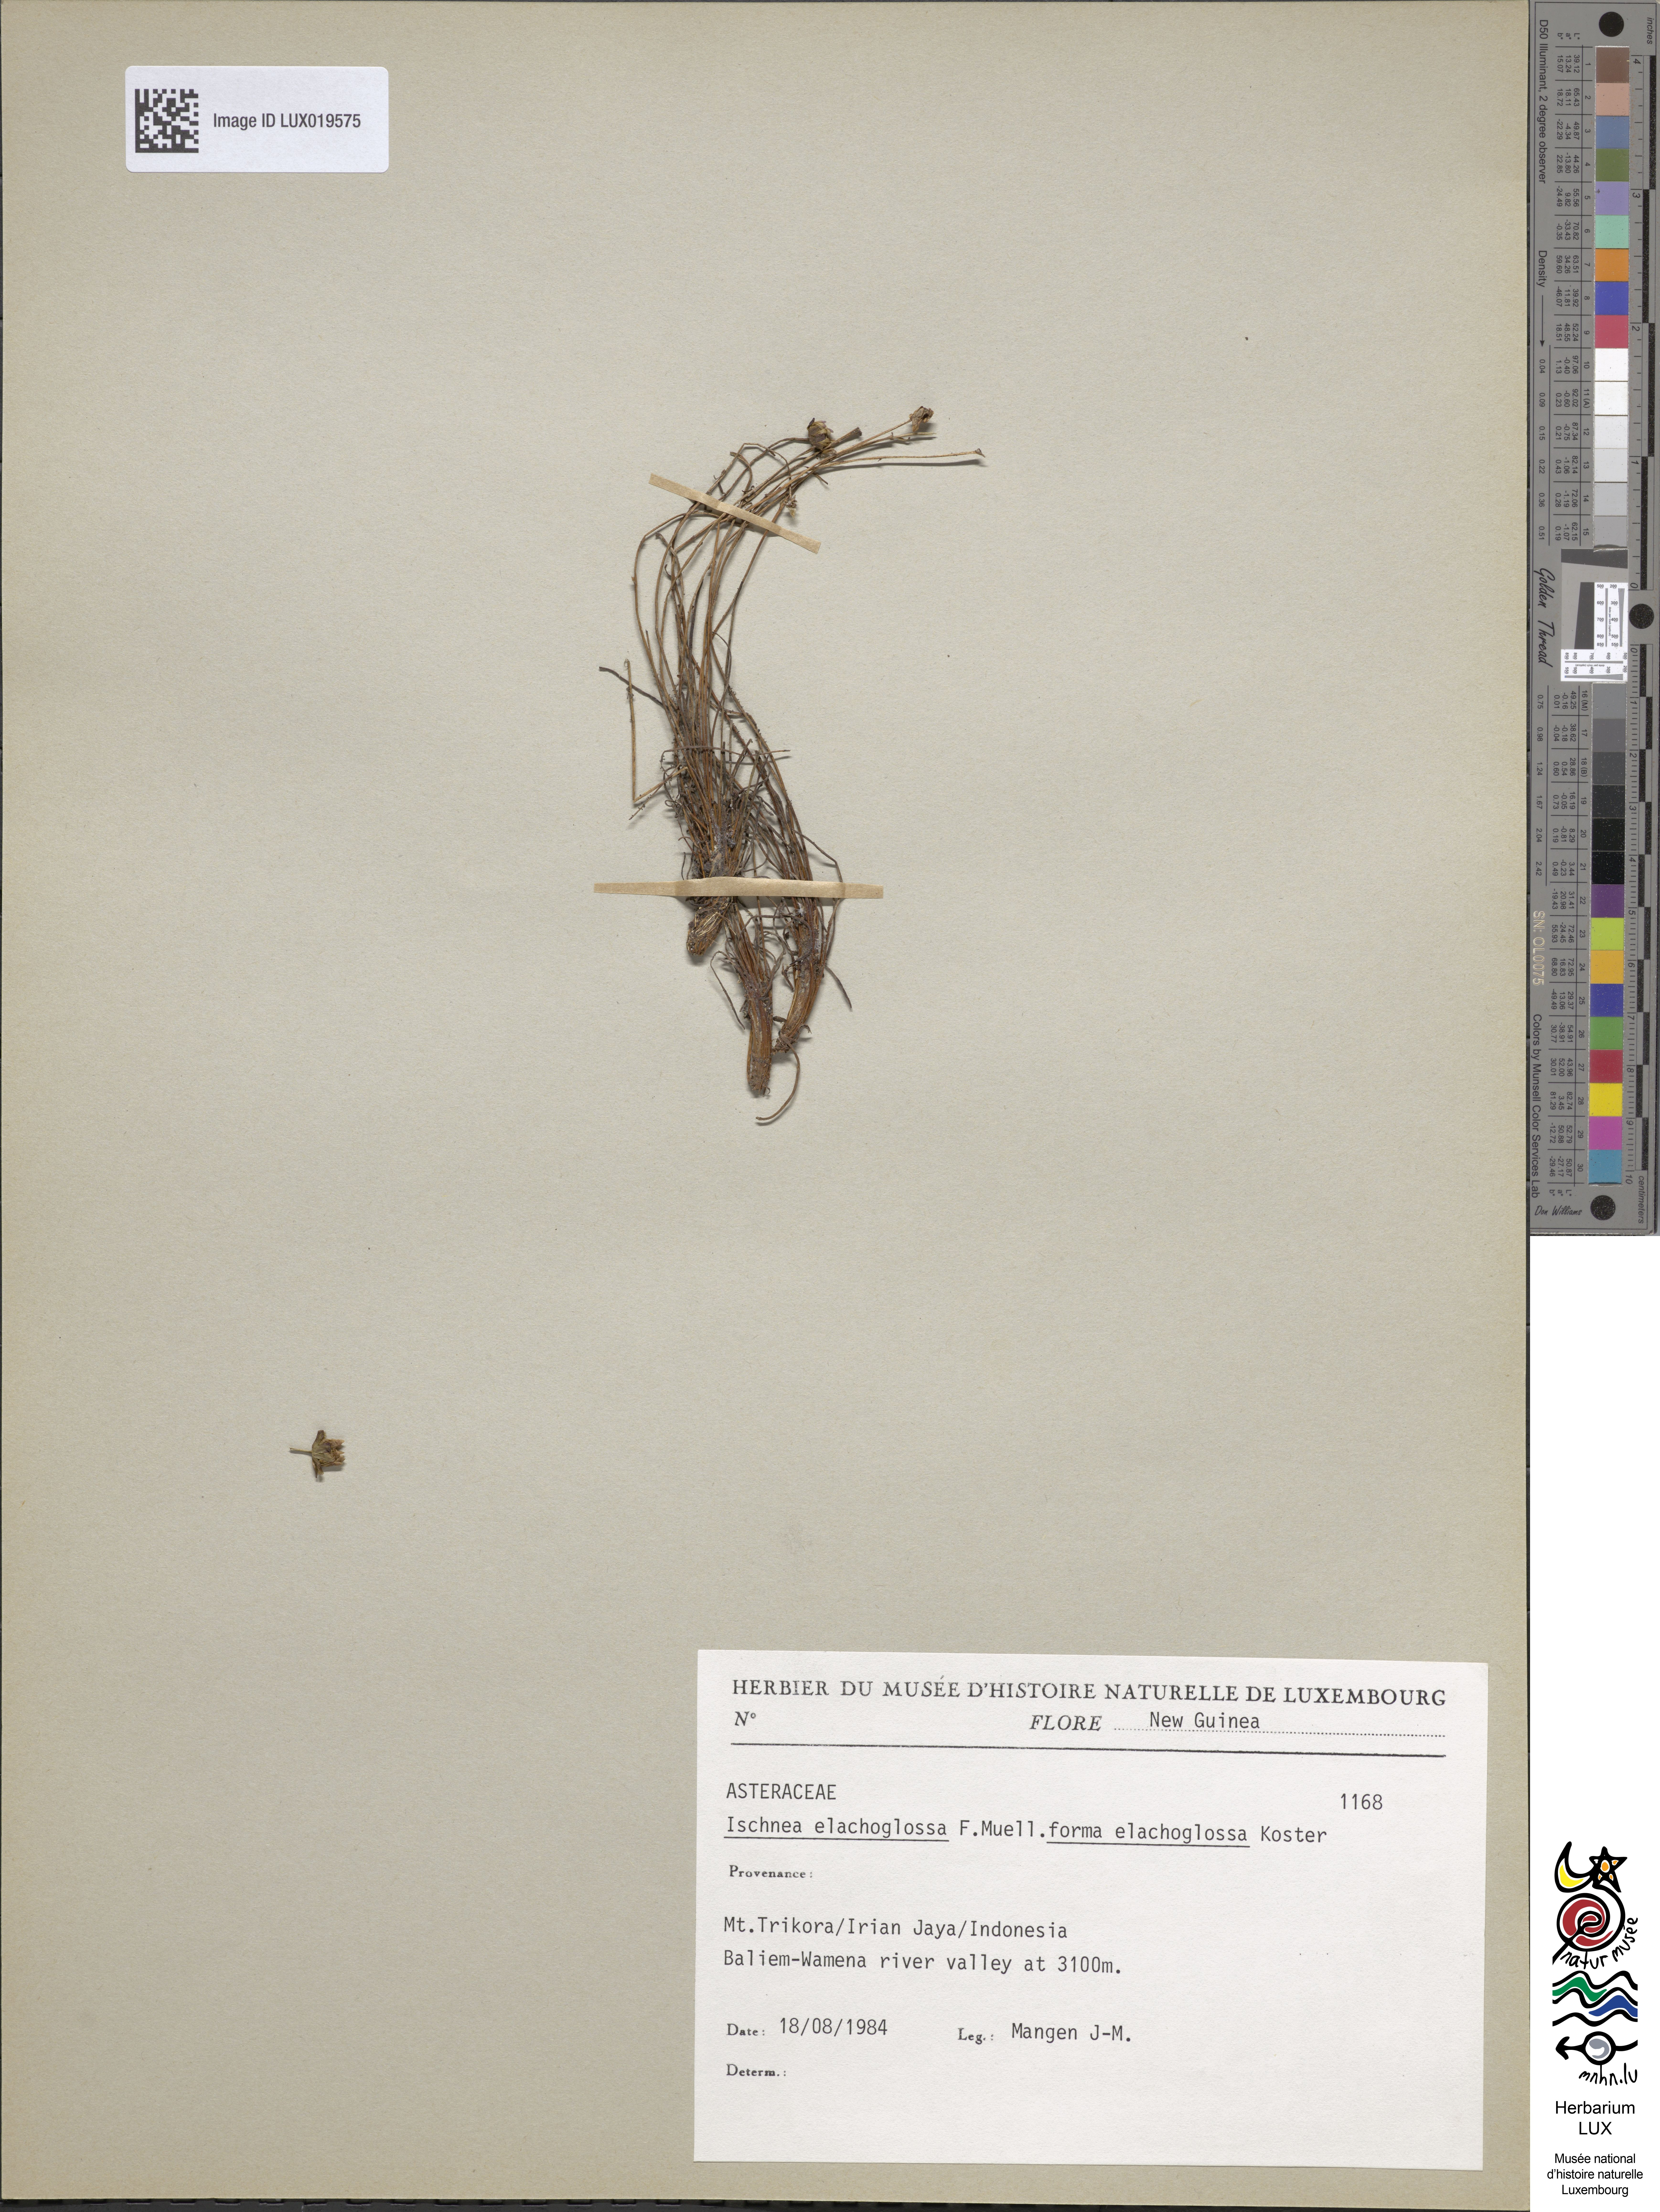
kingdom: Plantae
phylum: Tracheophyta
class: Magnoliopsida
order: Asterales
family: Asteraceae
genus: Ischnea
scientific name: Ischnea elachoglossa
